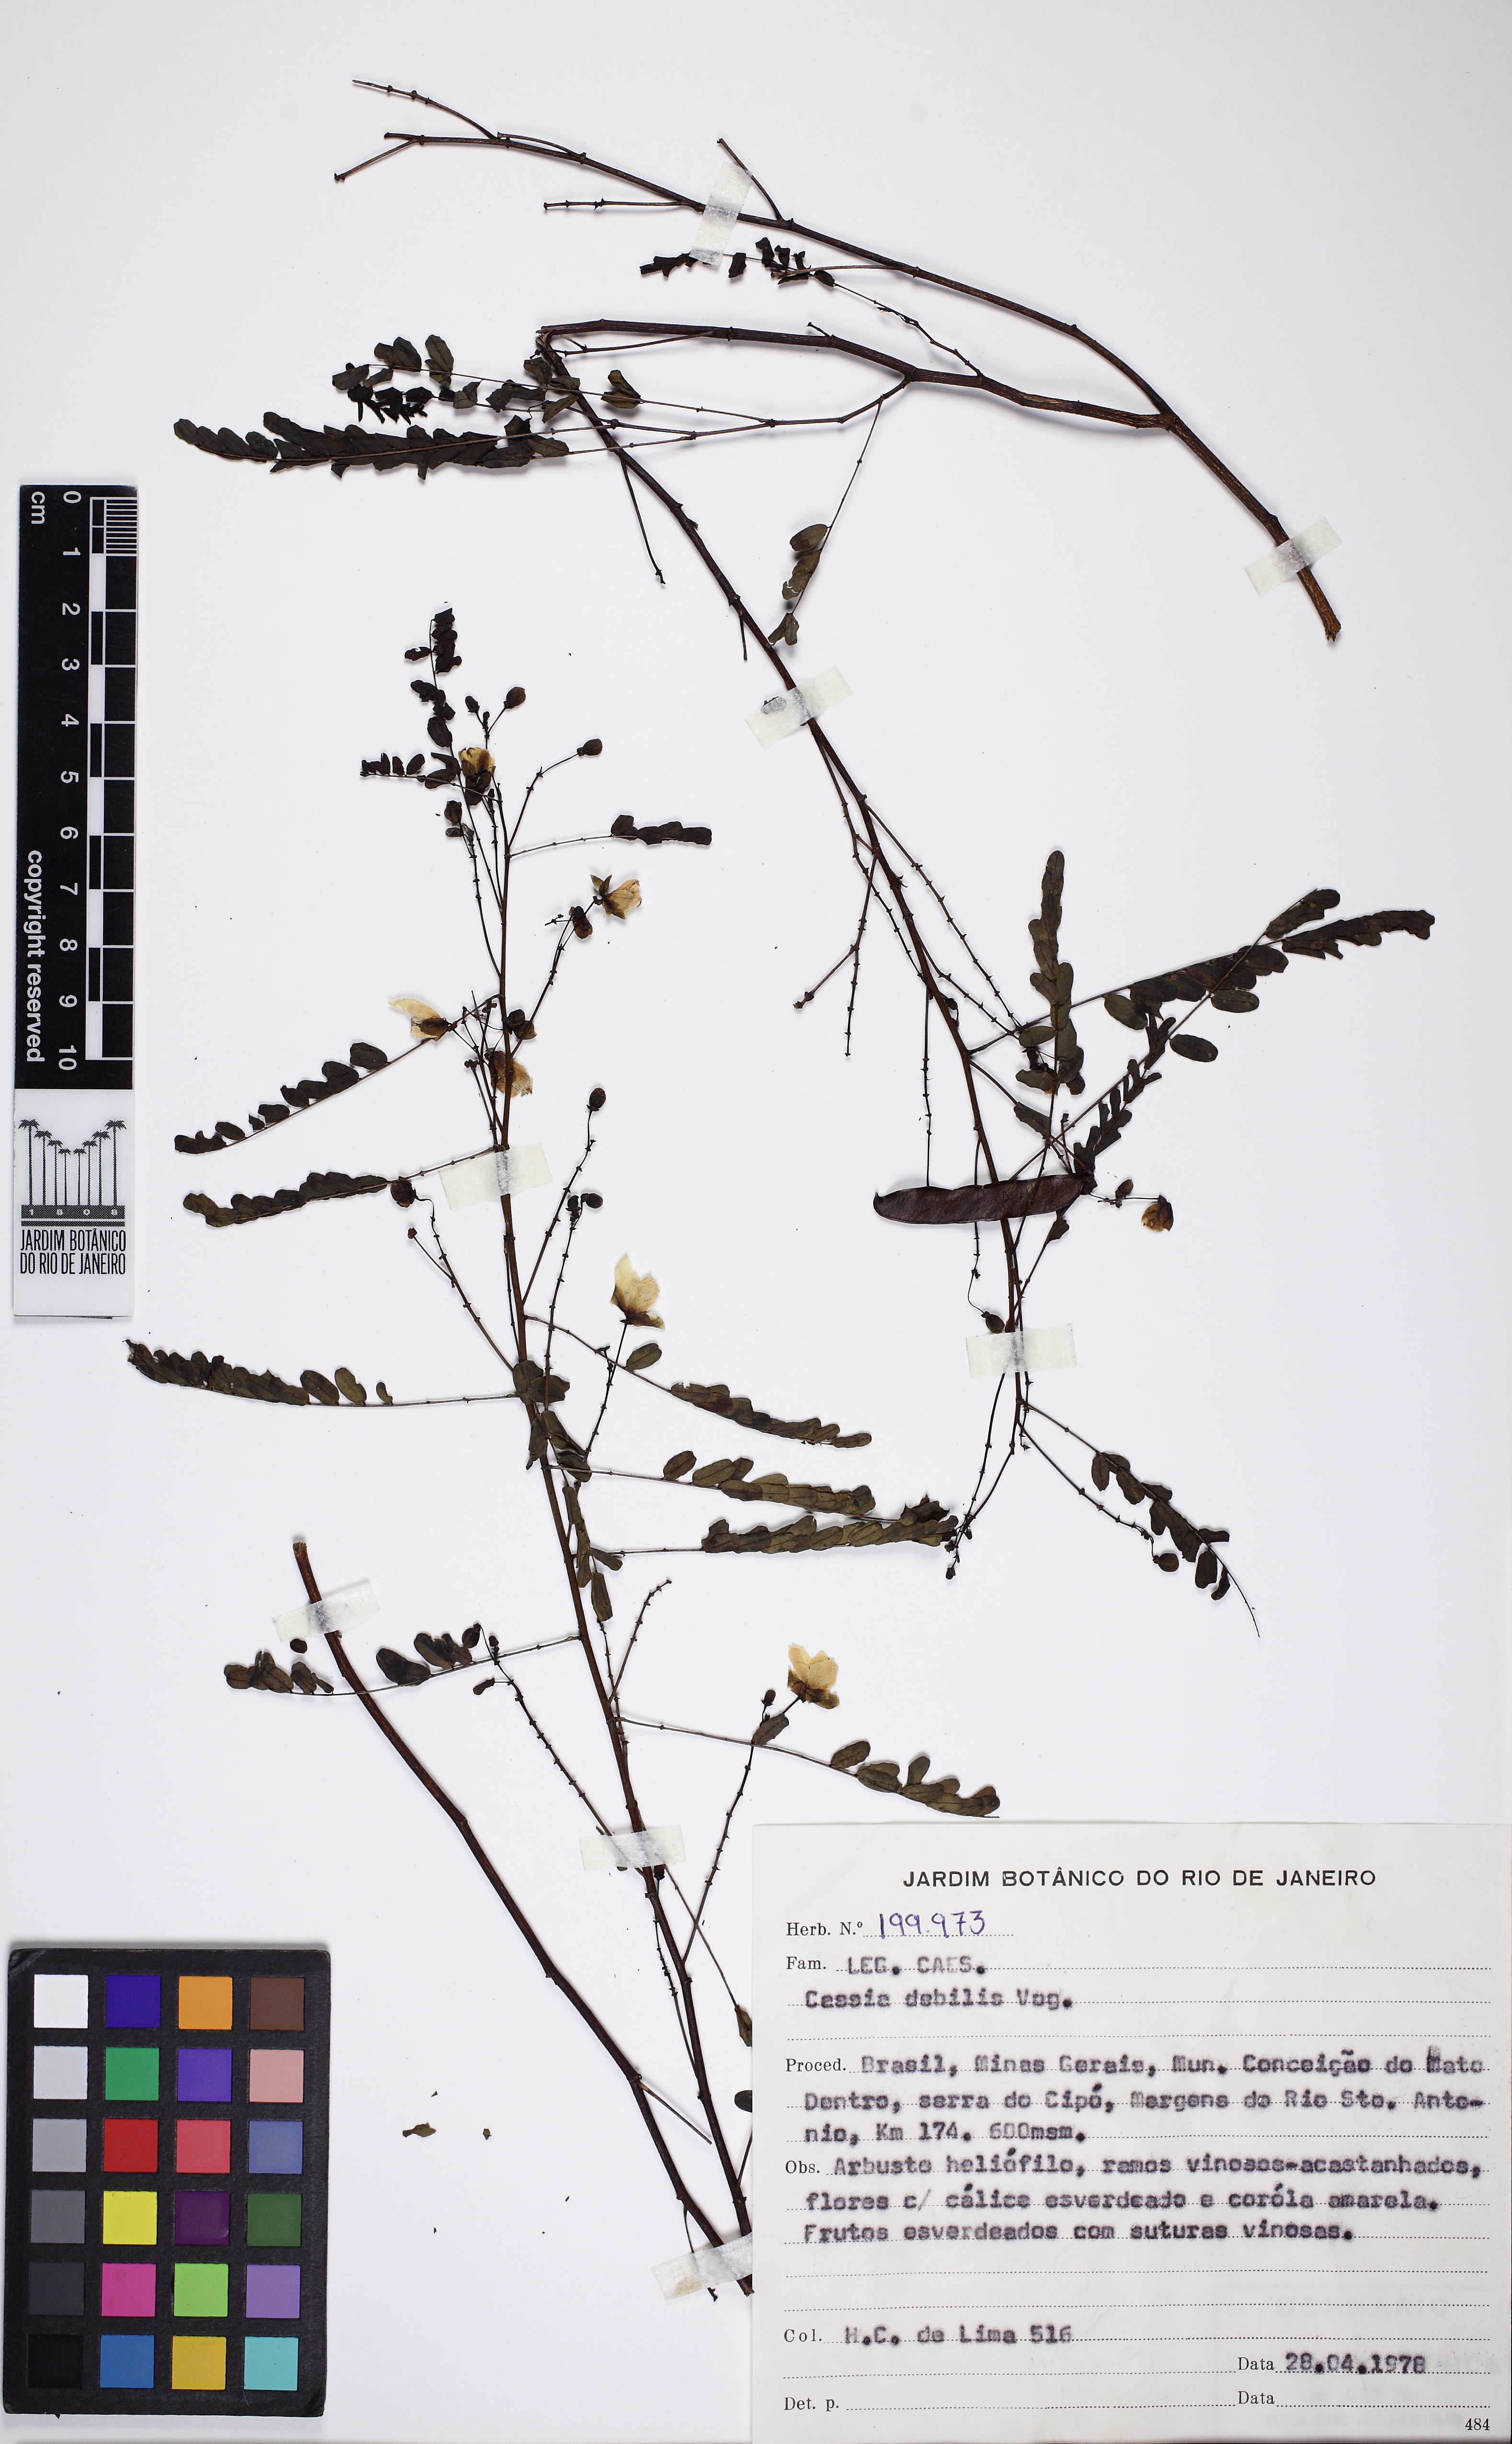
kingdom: Plantae
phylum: Tracheophyta
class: Magnoliopsida
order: Fabales
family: Fabaceae
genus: Chamaecrista
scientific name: Chamaecrista debilis
